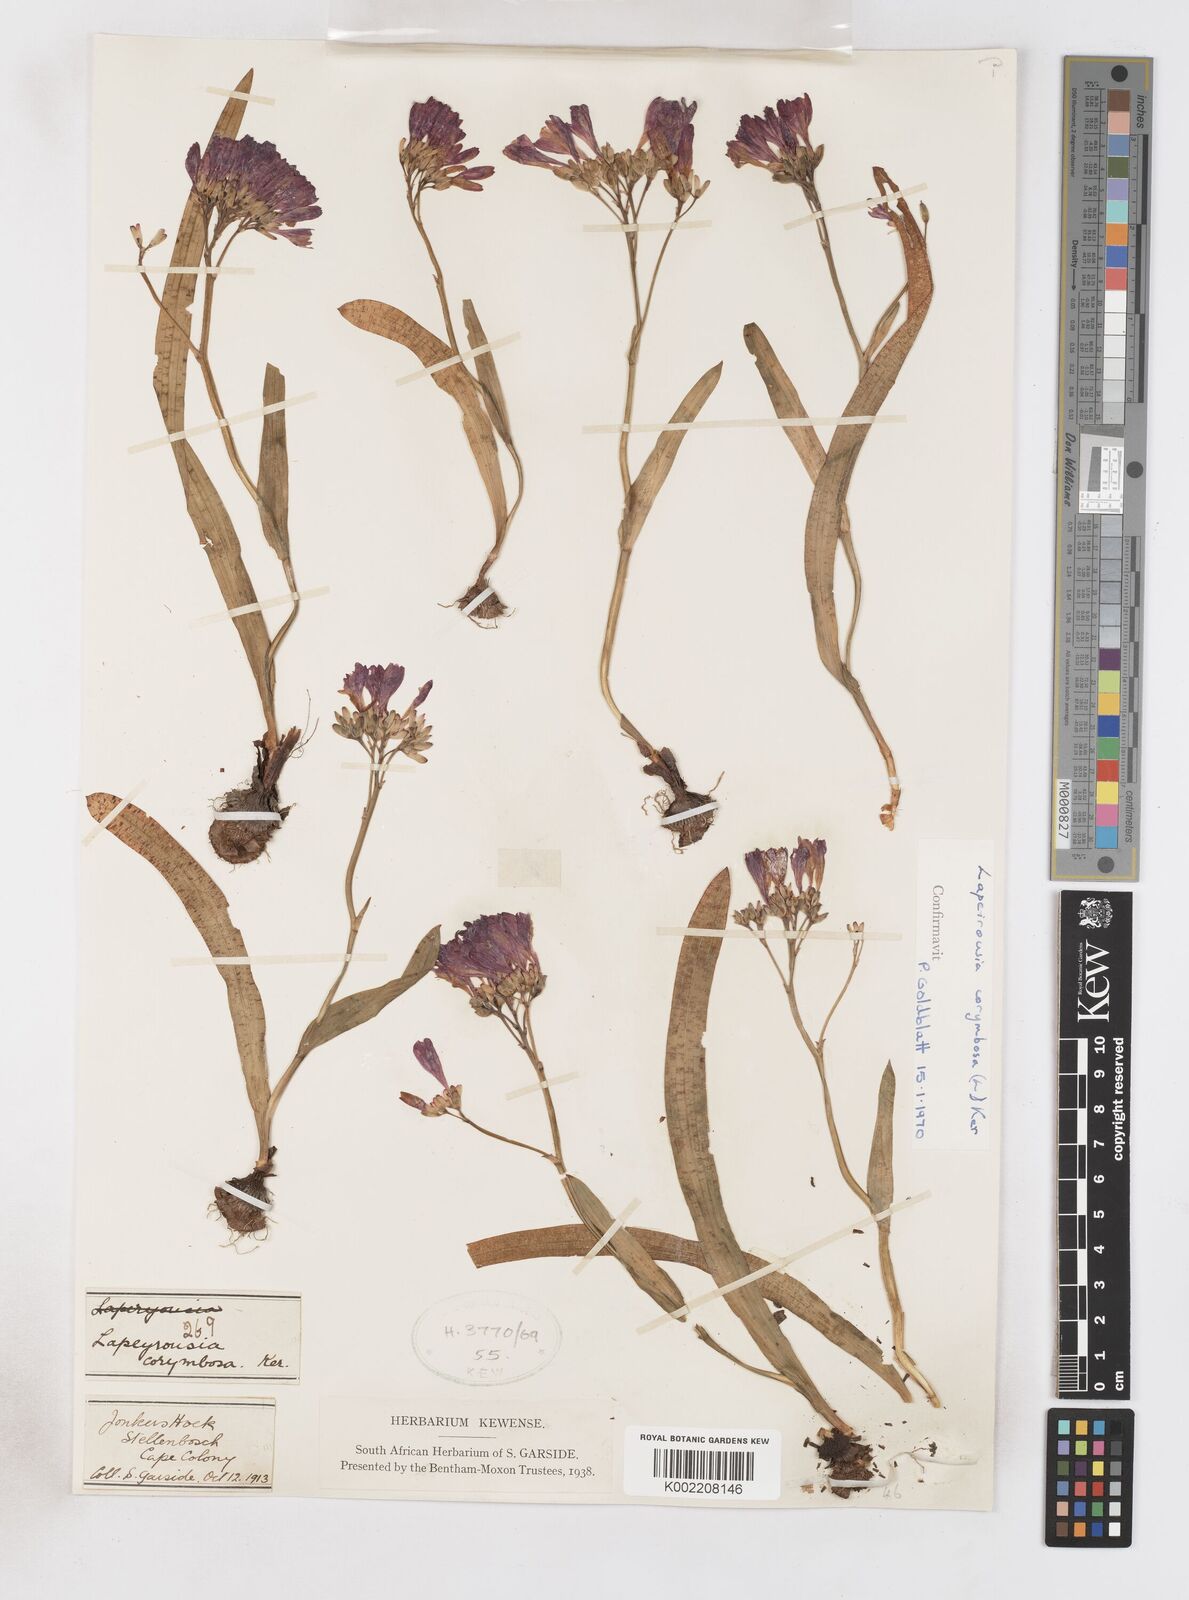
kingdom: Plantae
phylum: Tracheophyta
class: Liliopsida
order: Asparagales
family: Iridaceae
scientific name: Iridaceae
